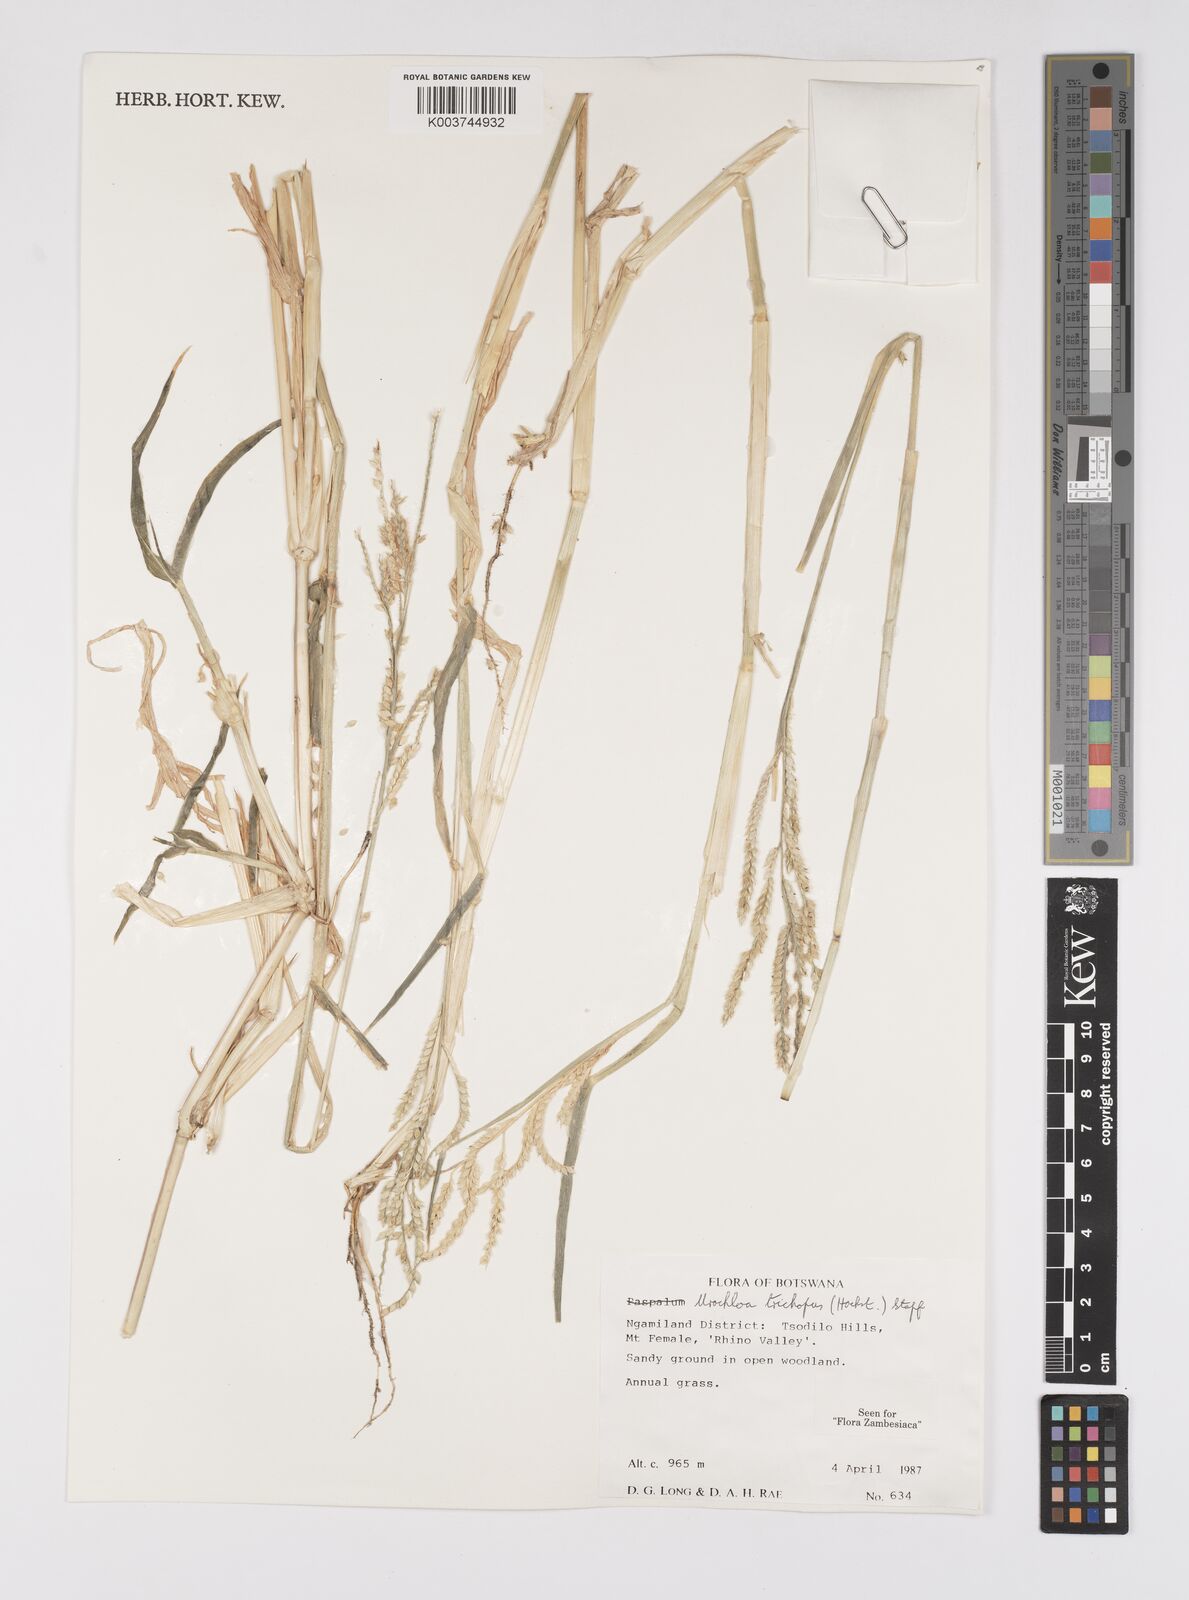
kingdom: Plantae
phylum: Tracheophyta
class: Liliopsida
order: Poales
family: Poaceae
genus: Urochloa
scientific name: Urochloa trichopus
